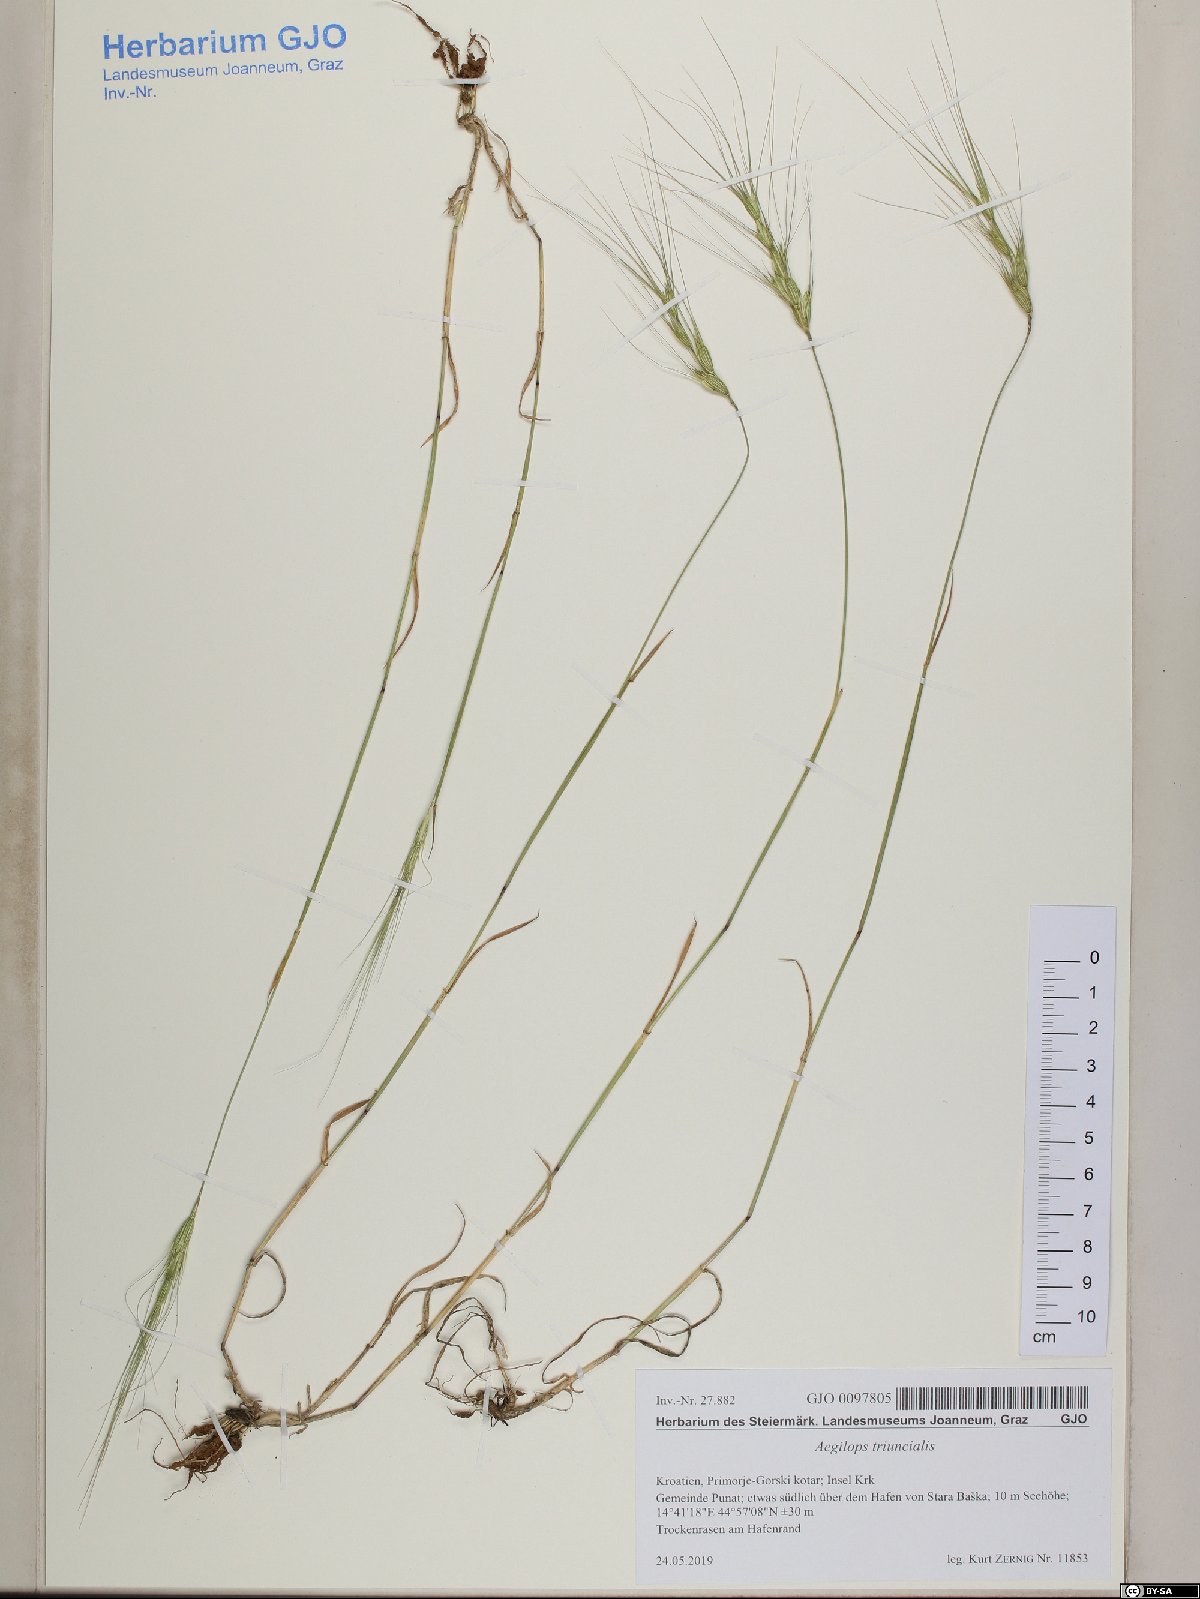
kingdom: Plantae
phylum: Tracheophyta
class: Liliopsida
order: Poales
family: Poaceae
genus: Aegilops
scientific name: Aegilops triuncialis
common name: Barb goat grass
